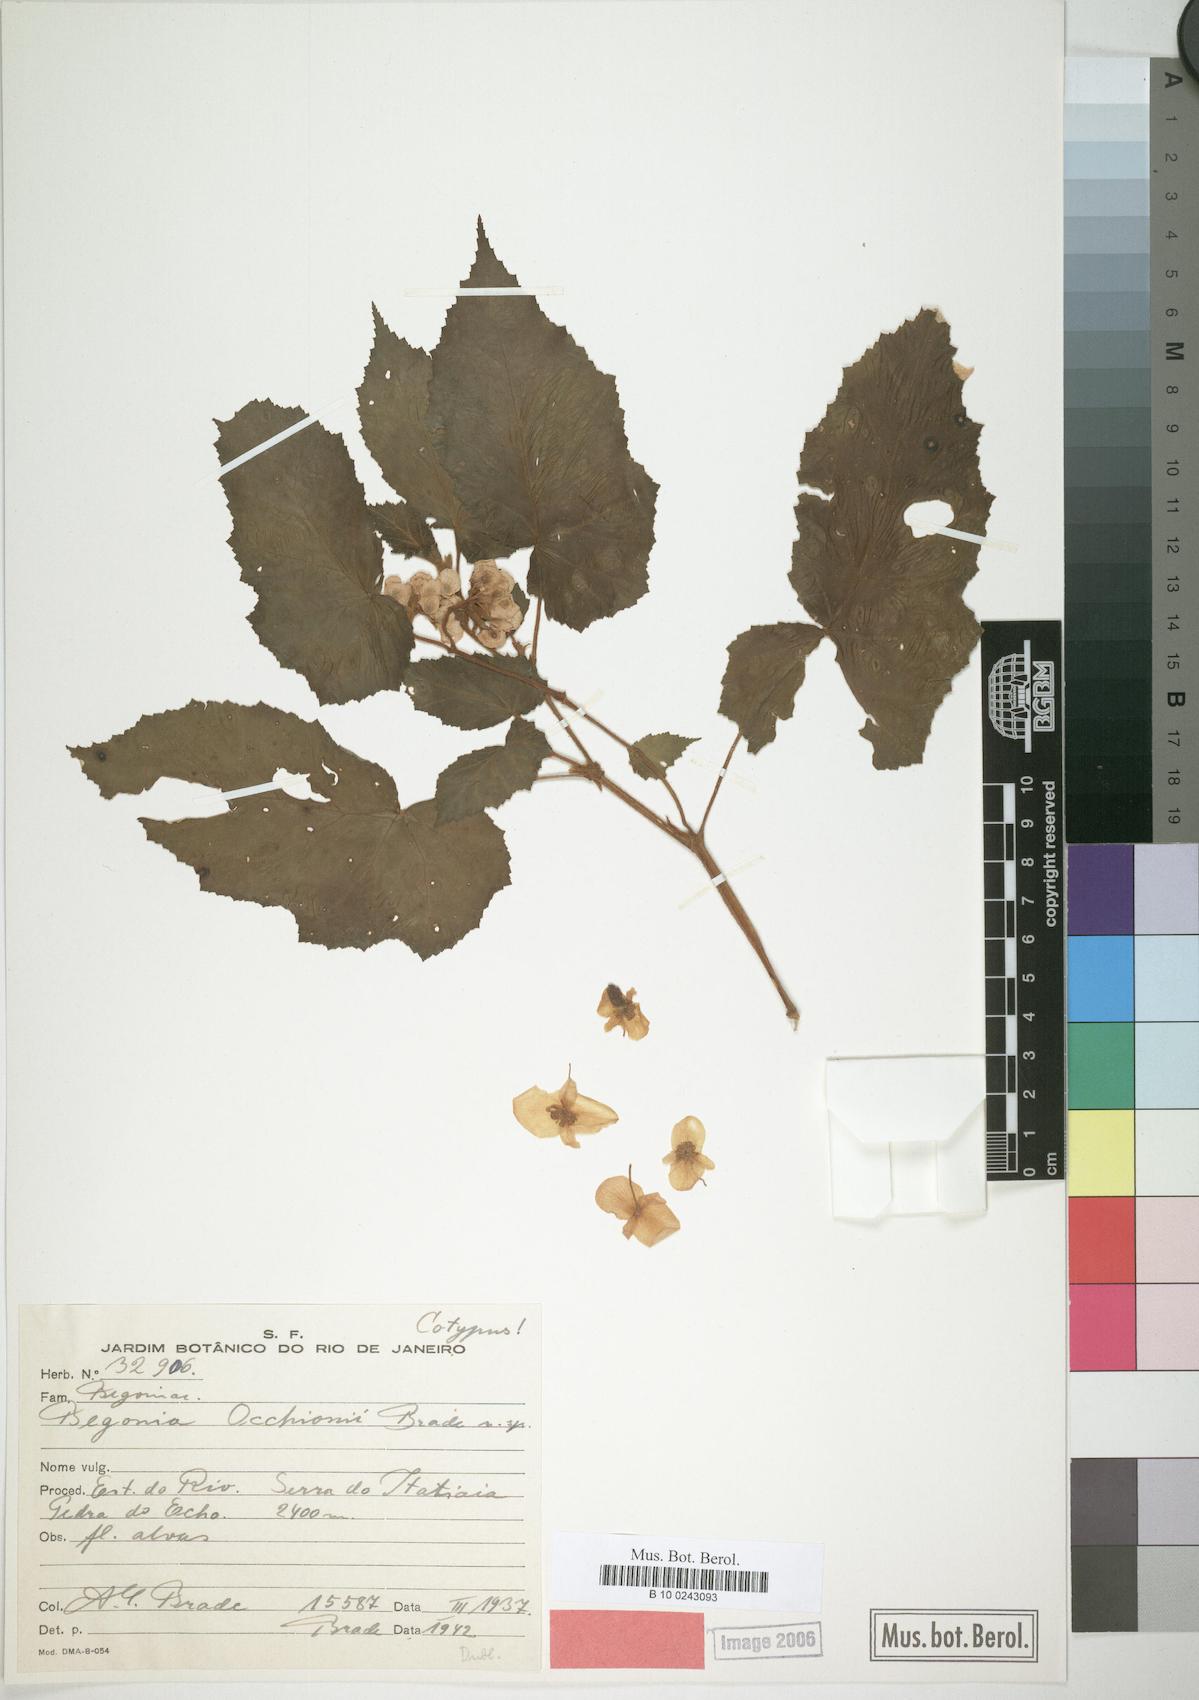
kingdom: Plantae
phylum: Tracheophyta
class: Magnoliopsida
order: Cucurbitales
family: Begoniaceae
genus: Begonia
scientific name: Begonia occhionii
